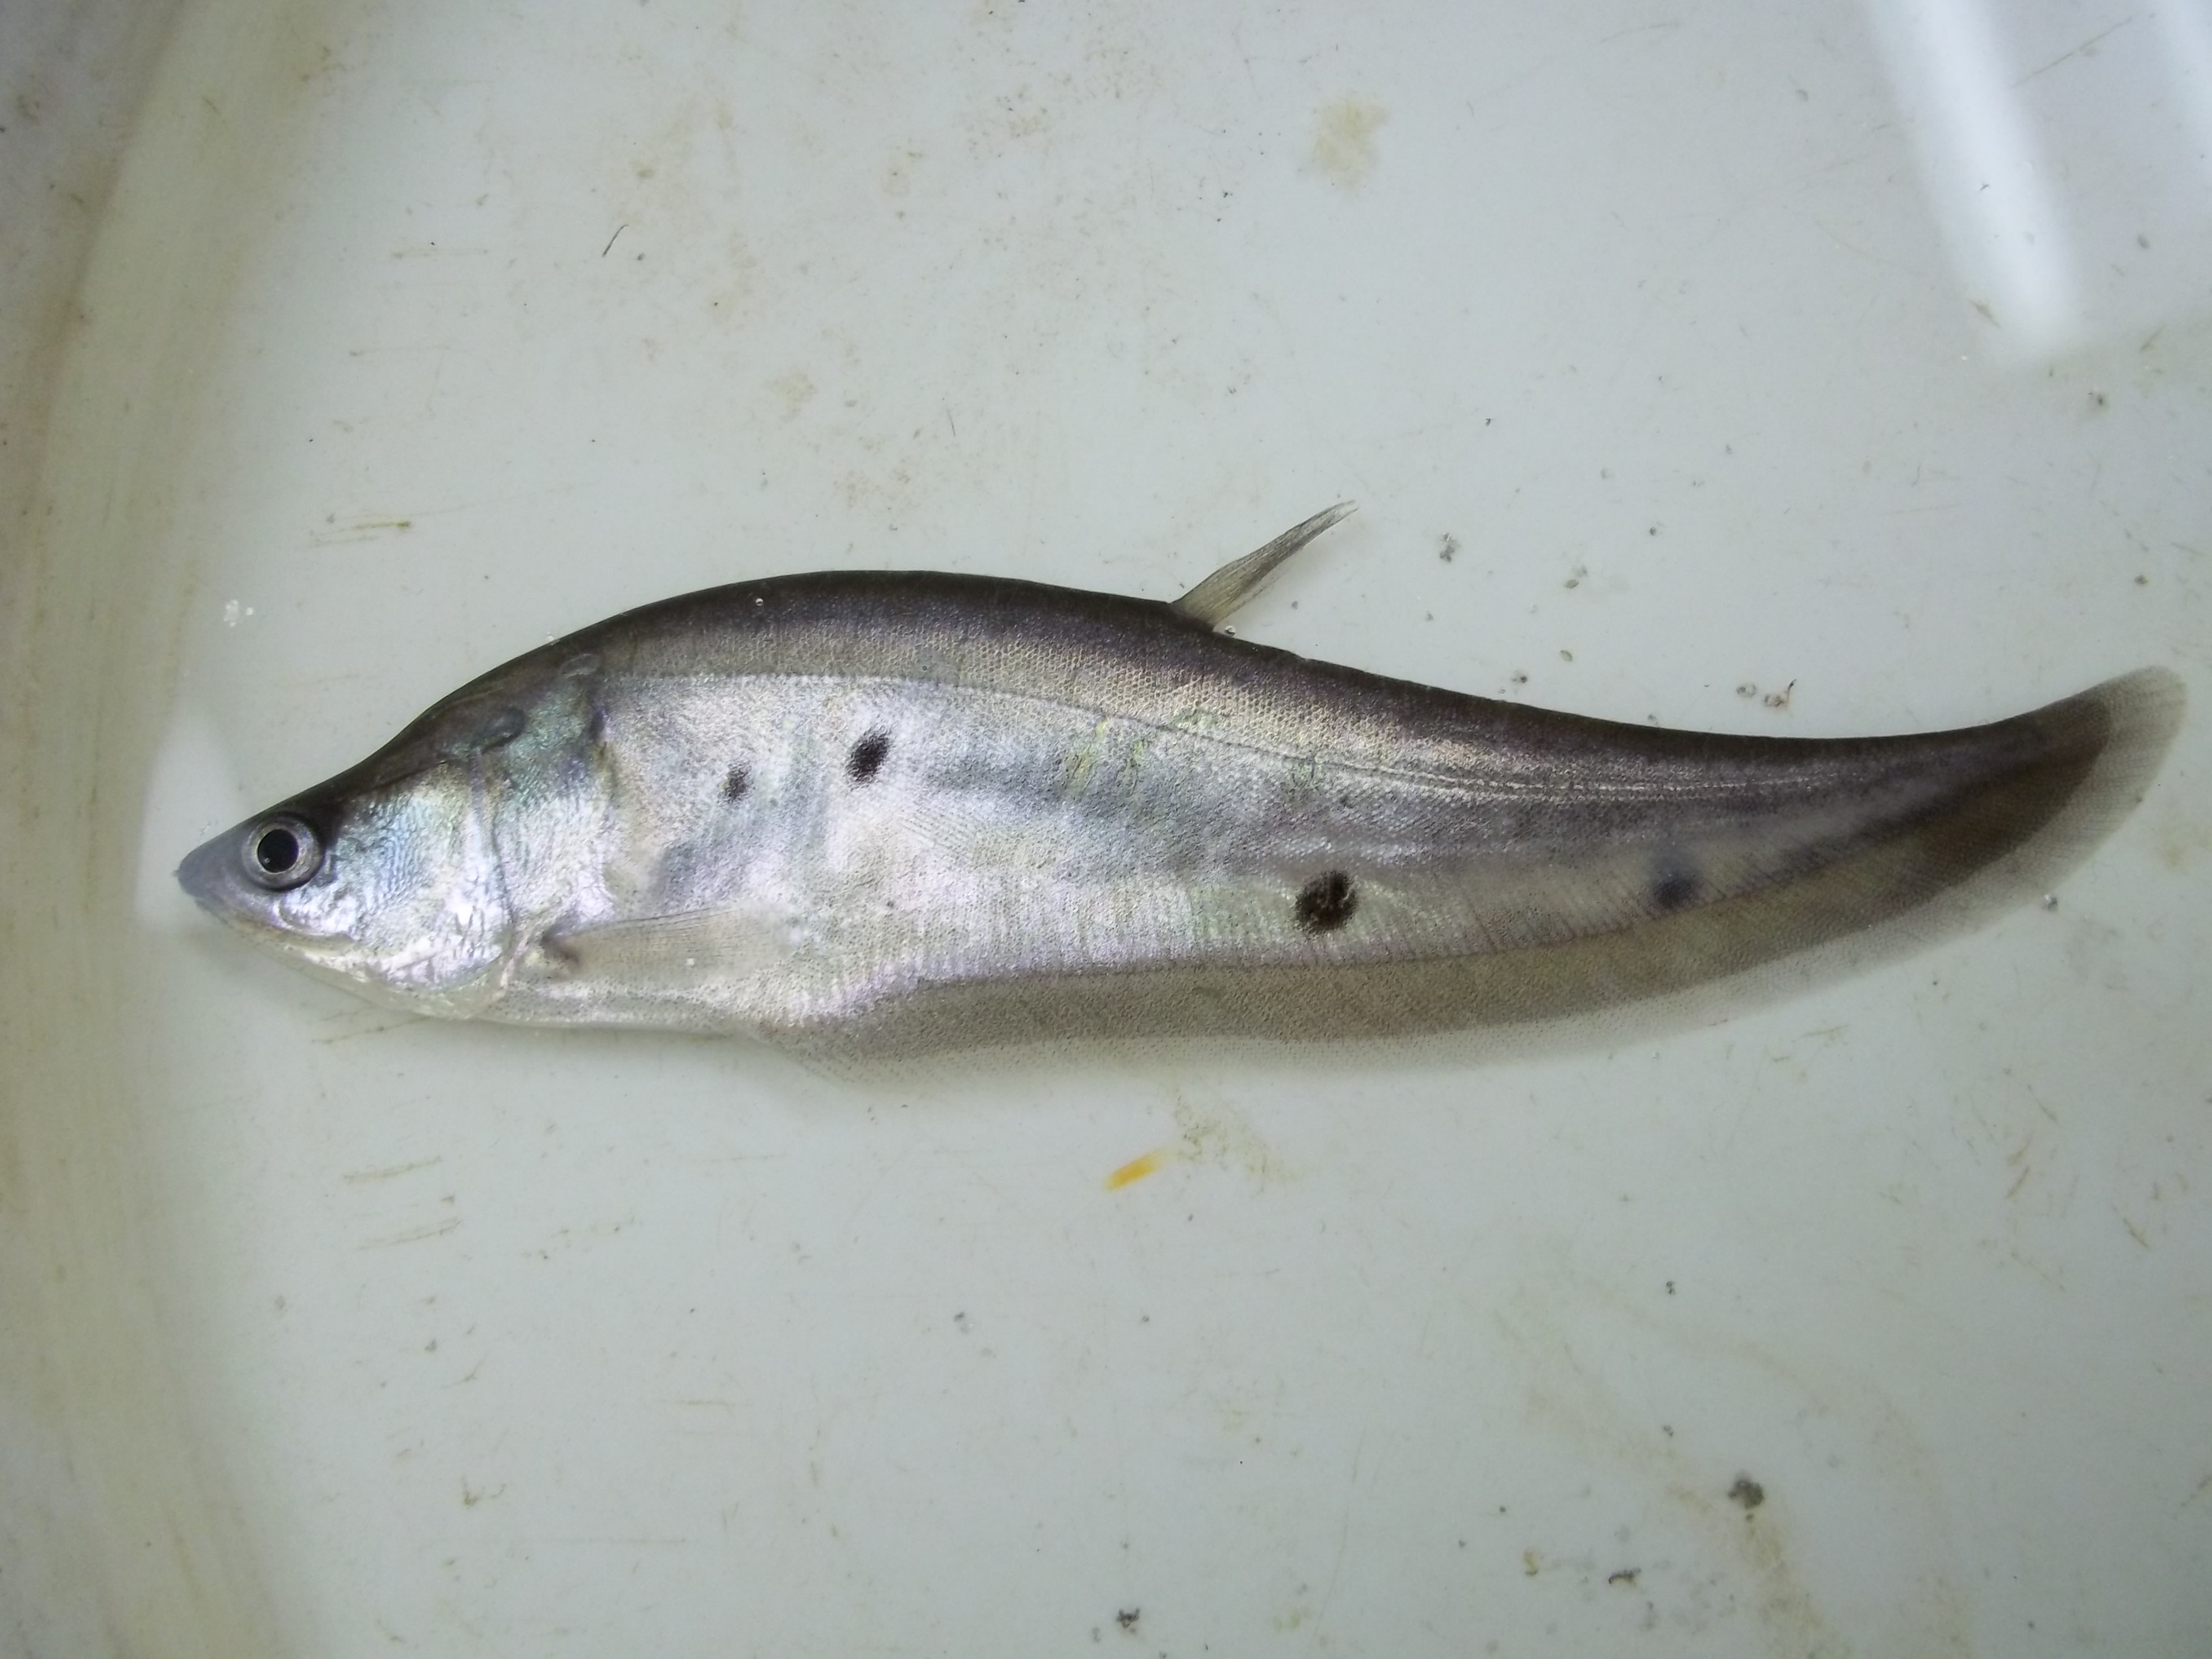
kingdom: Animalia
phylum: Chordata
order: Osteoglossiformes
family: Notopteridae
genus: Chitala
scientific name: Chitala chitala
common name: Clown knifefish
